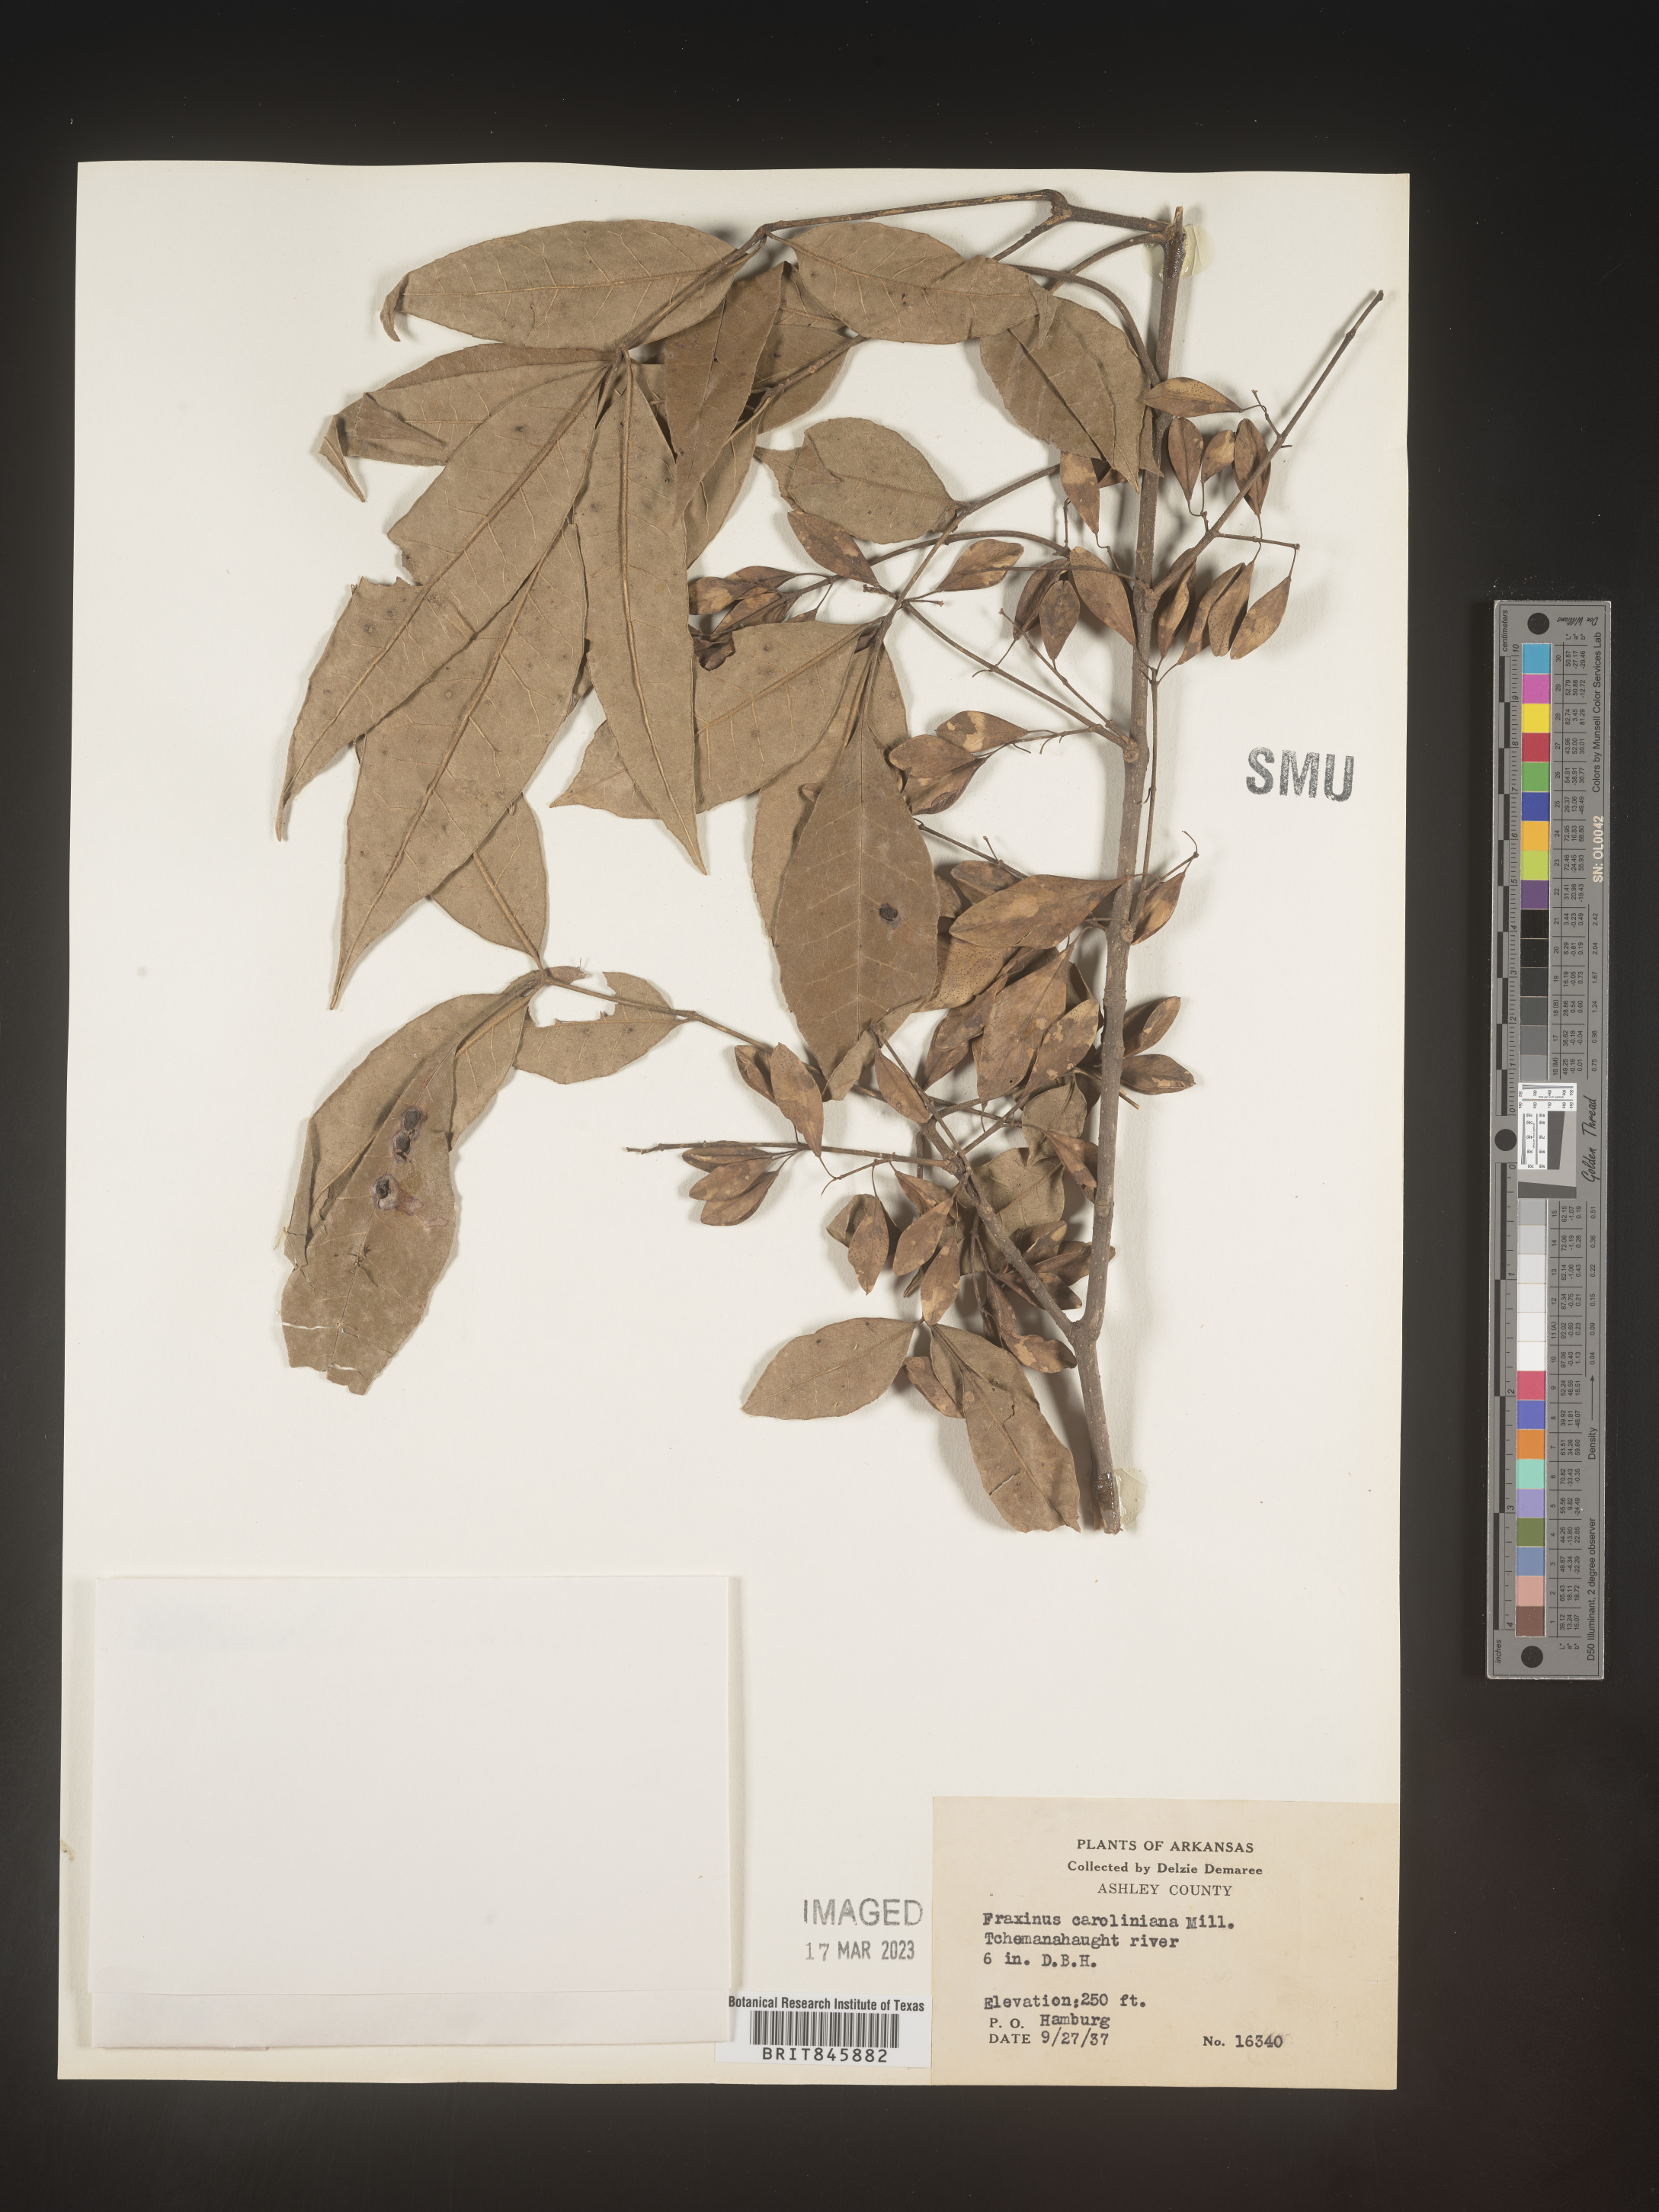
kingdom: Plantae
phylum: Tracheophyta
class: Magnoliopsida
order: Lamiales
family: Oleaceae
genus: Fraxinus
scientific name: Fraxinus caroliniana
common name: Carolina ash
